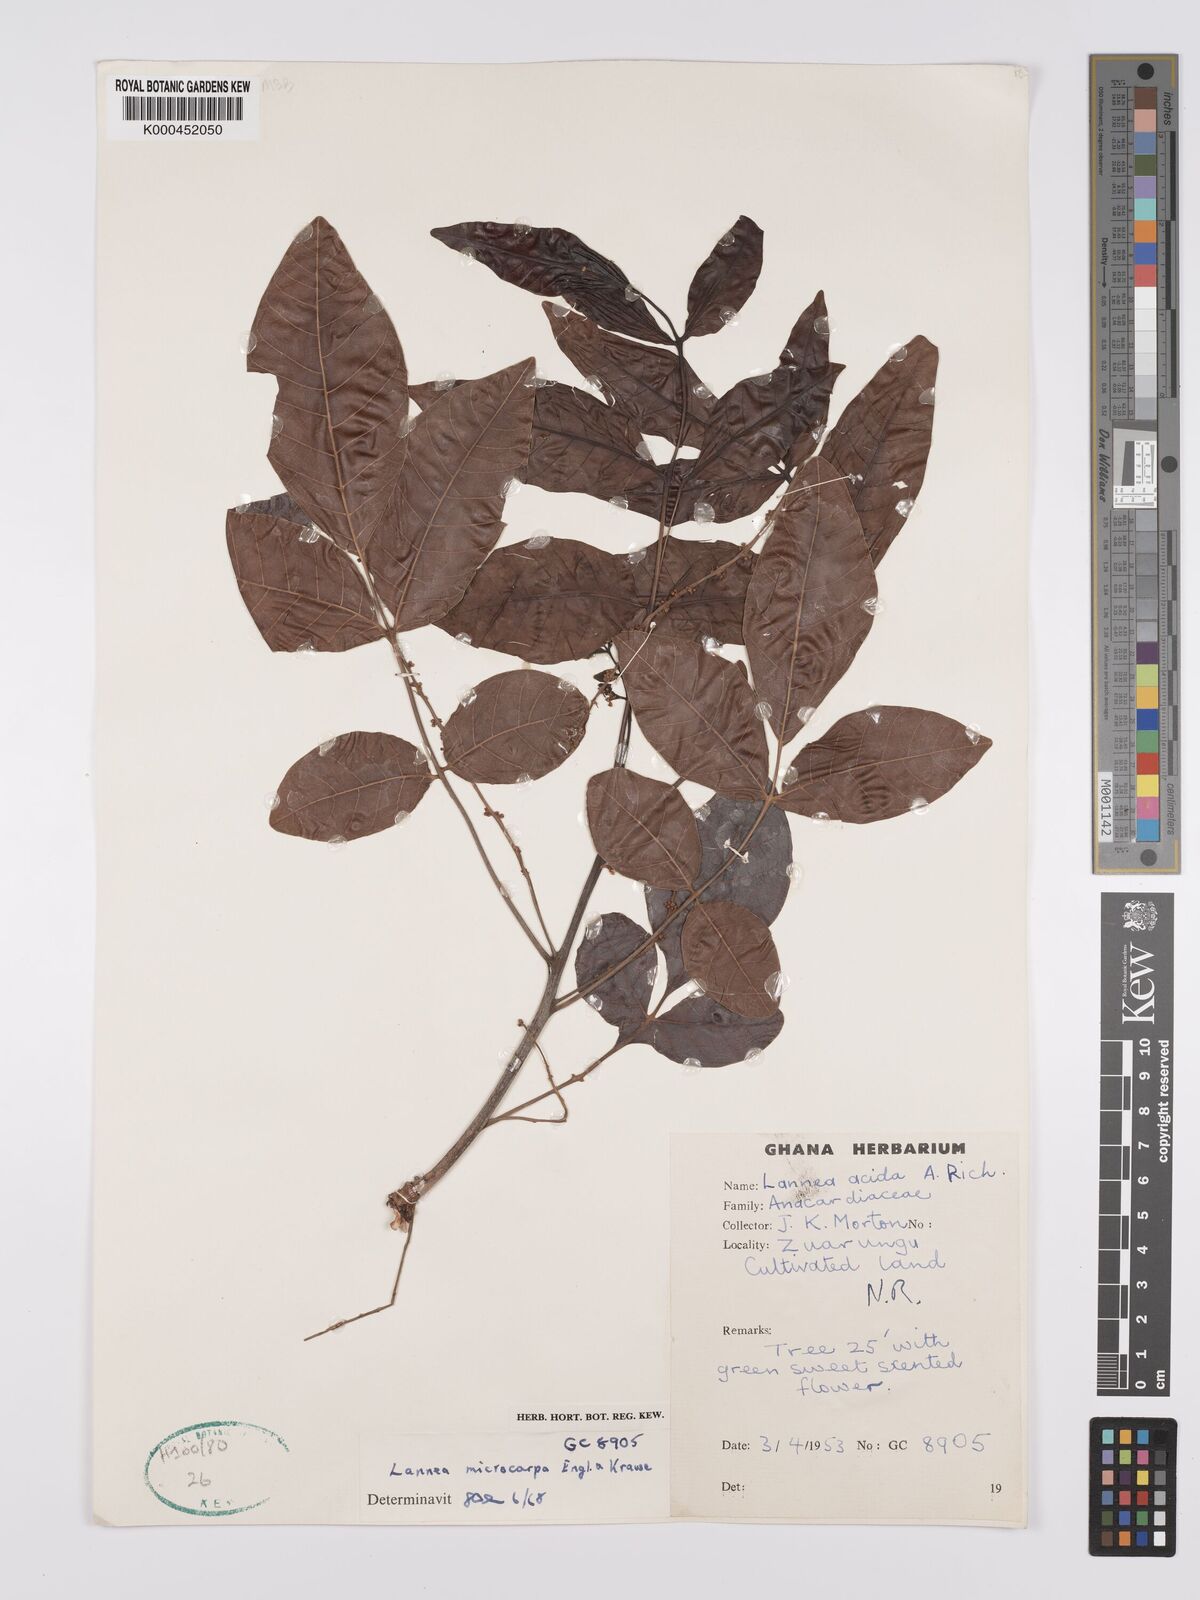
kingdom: Plantae
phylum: Tracheophyta
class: Magnoliopsida
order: Sapindales
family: Anacardiaceae
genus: Lannea
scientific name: Lannea microcarpa
